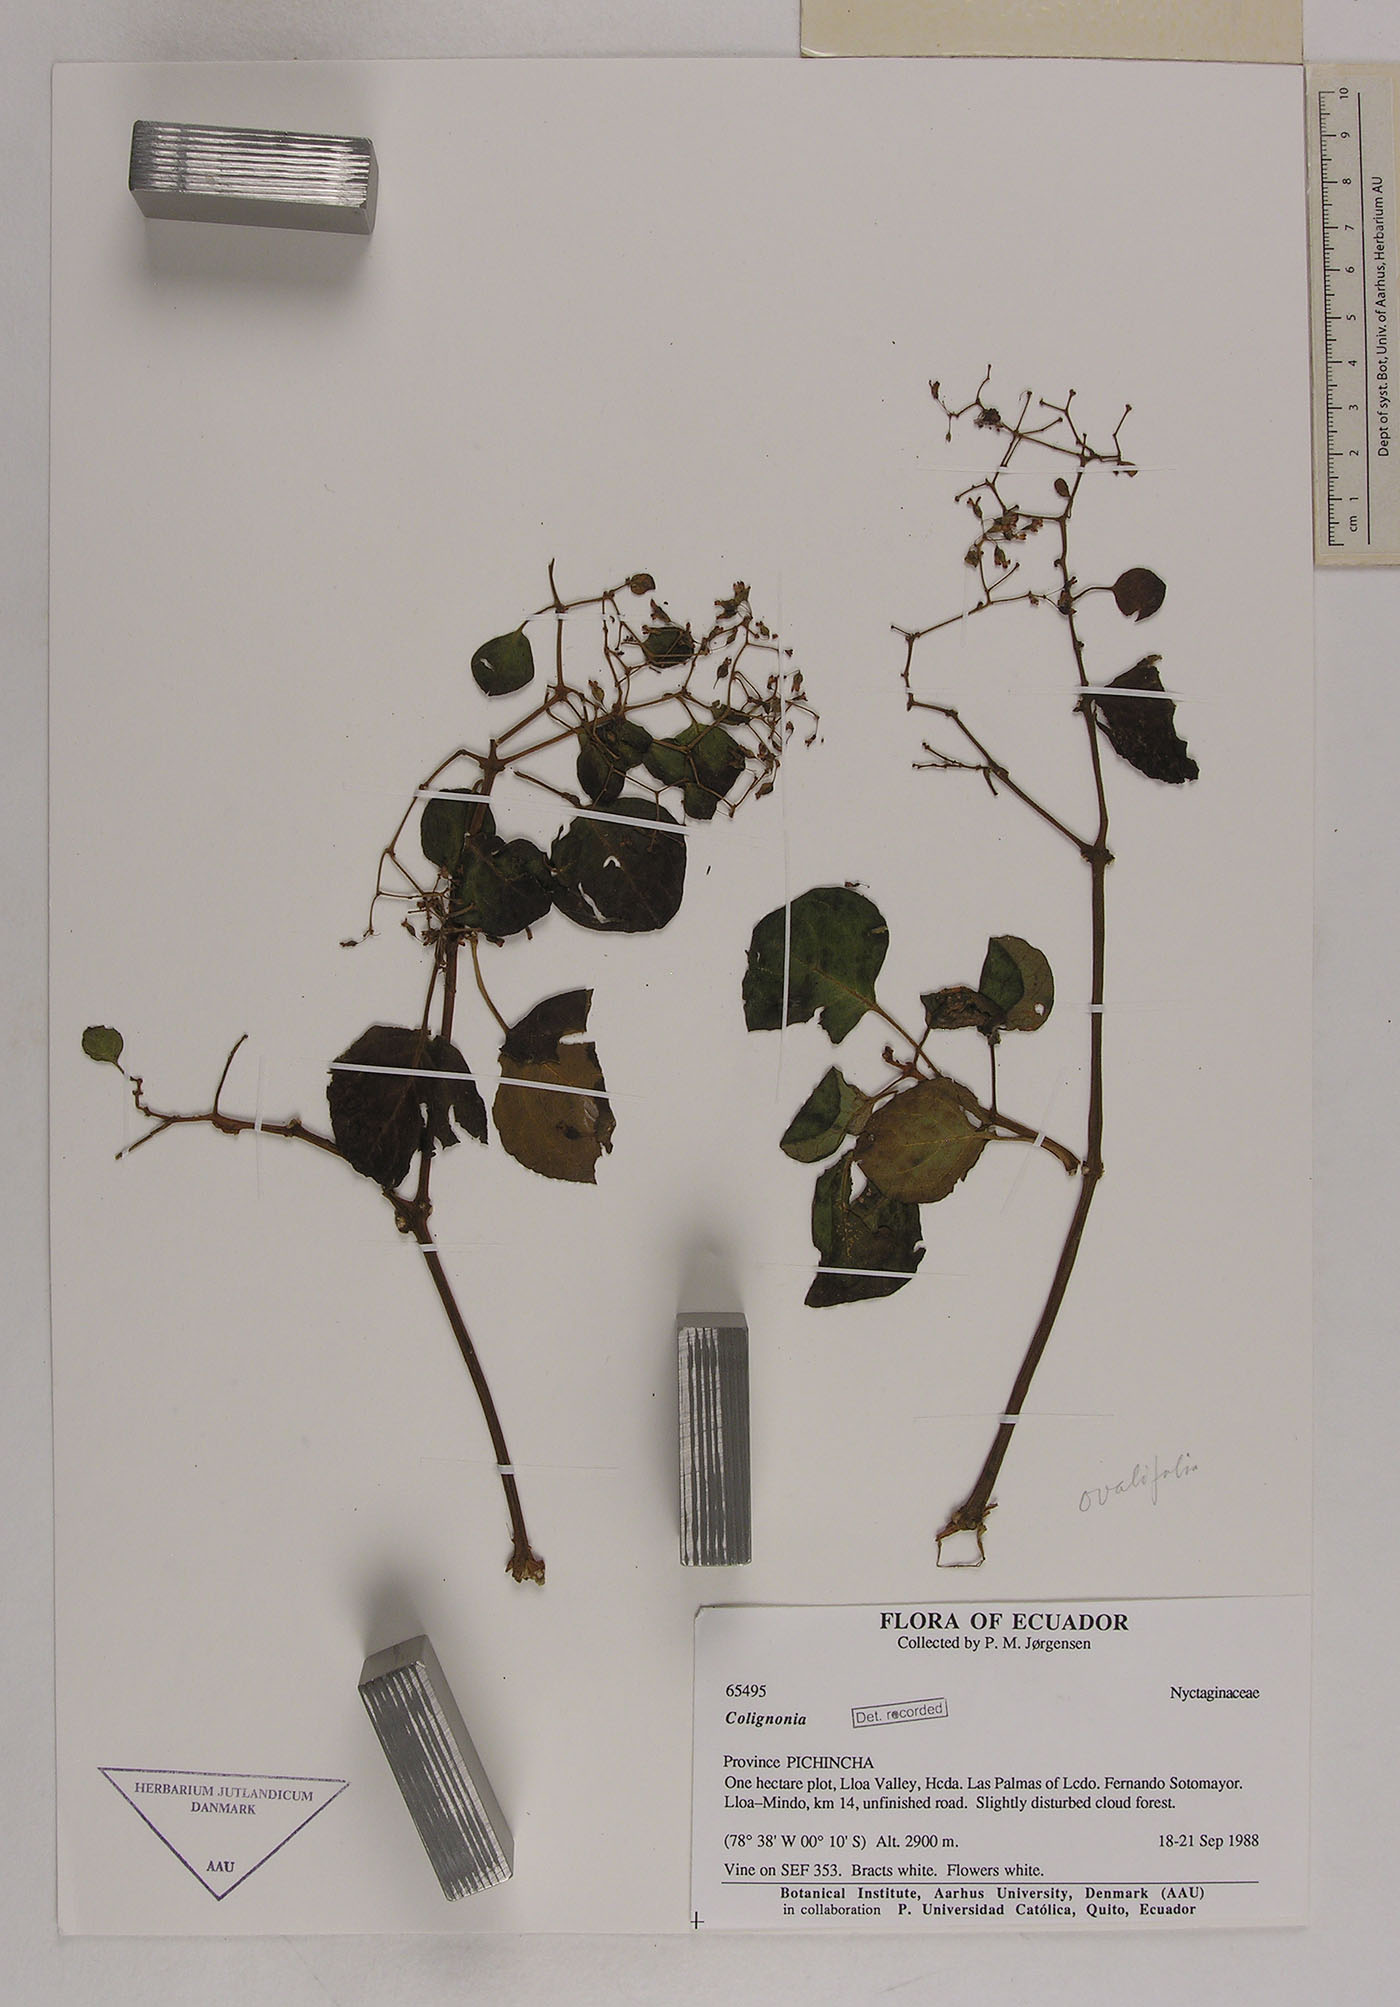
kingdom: Plantae
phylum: Tracheophyta
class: Magnoliopsida
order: Caryophyllales
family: Nyctaginaceae
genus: Colignonia
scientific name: Colignonia
